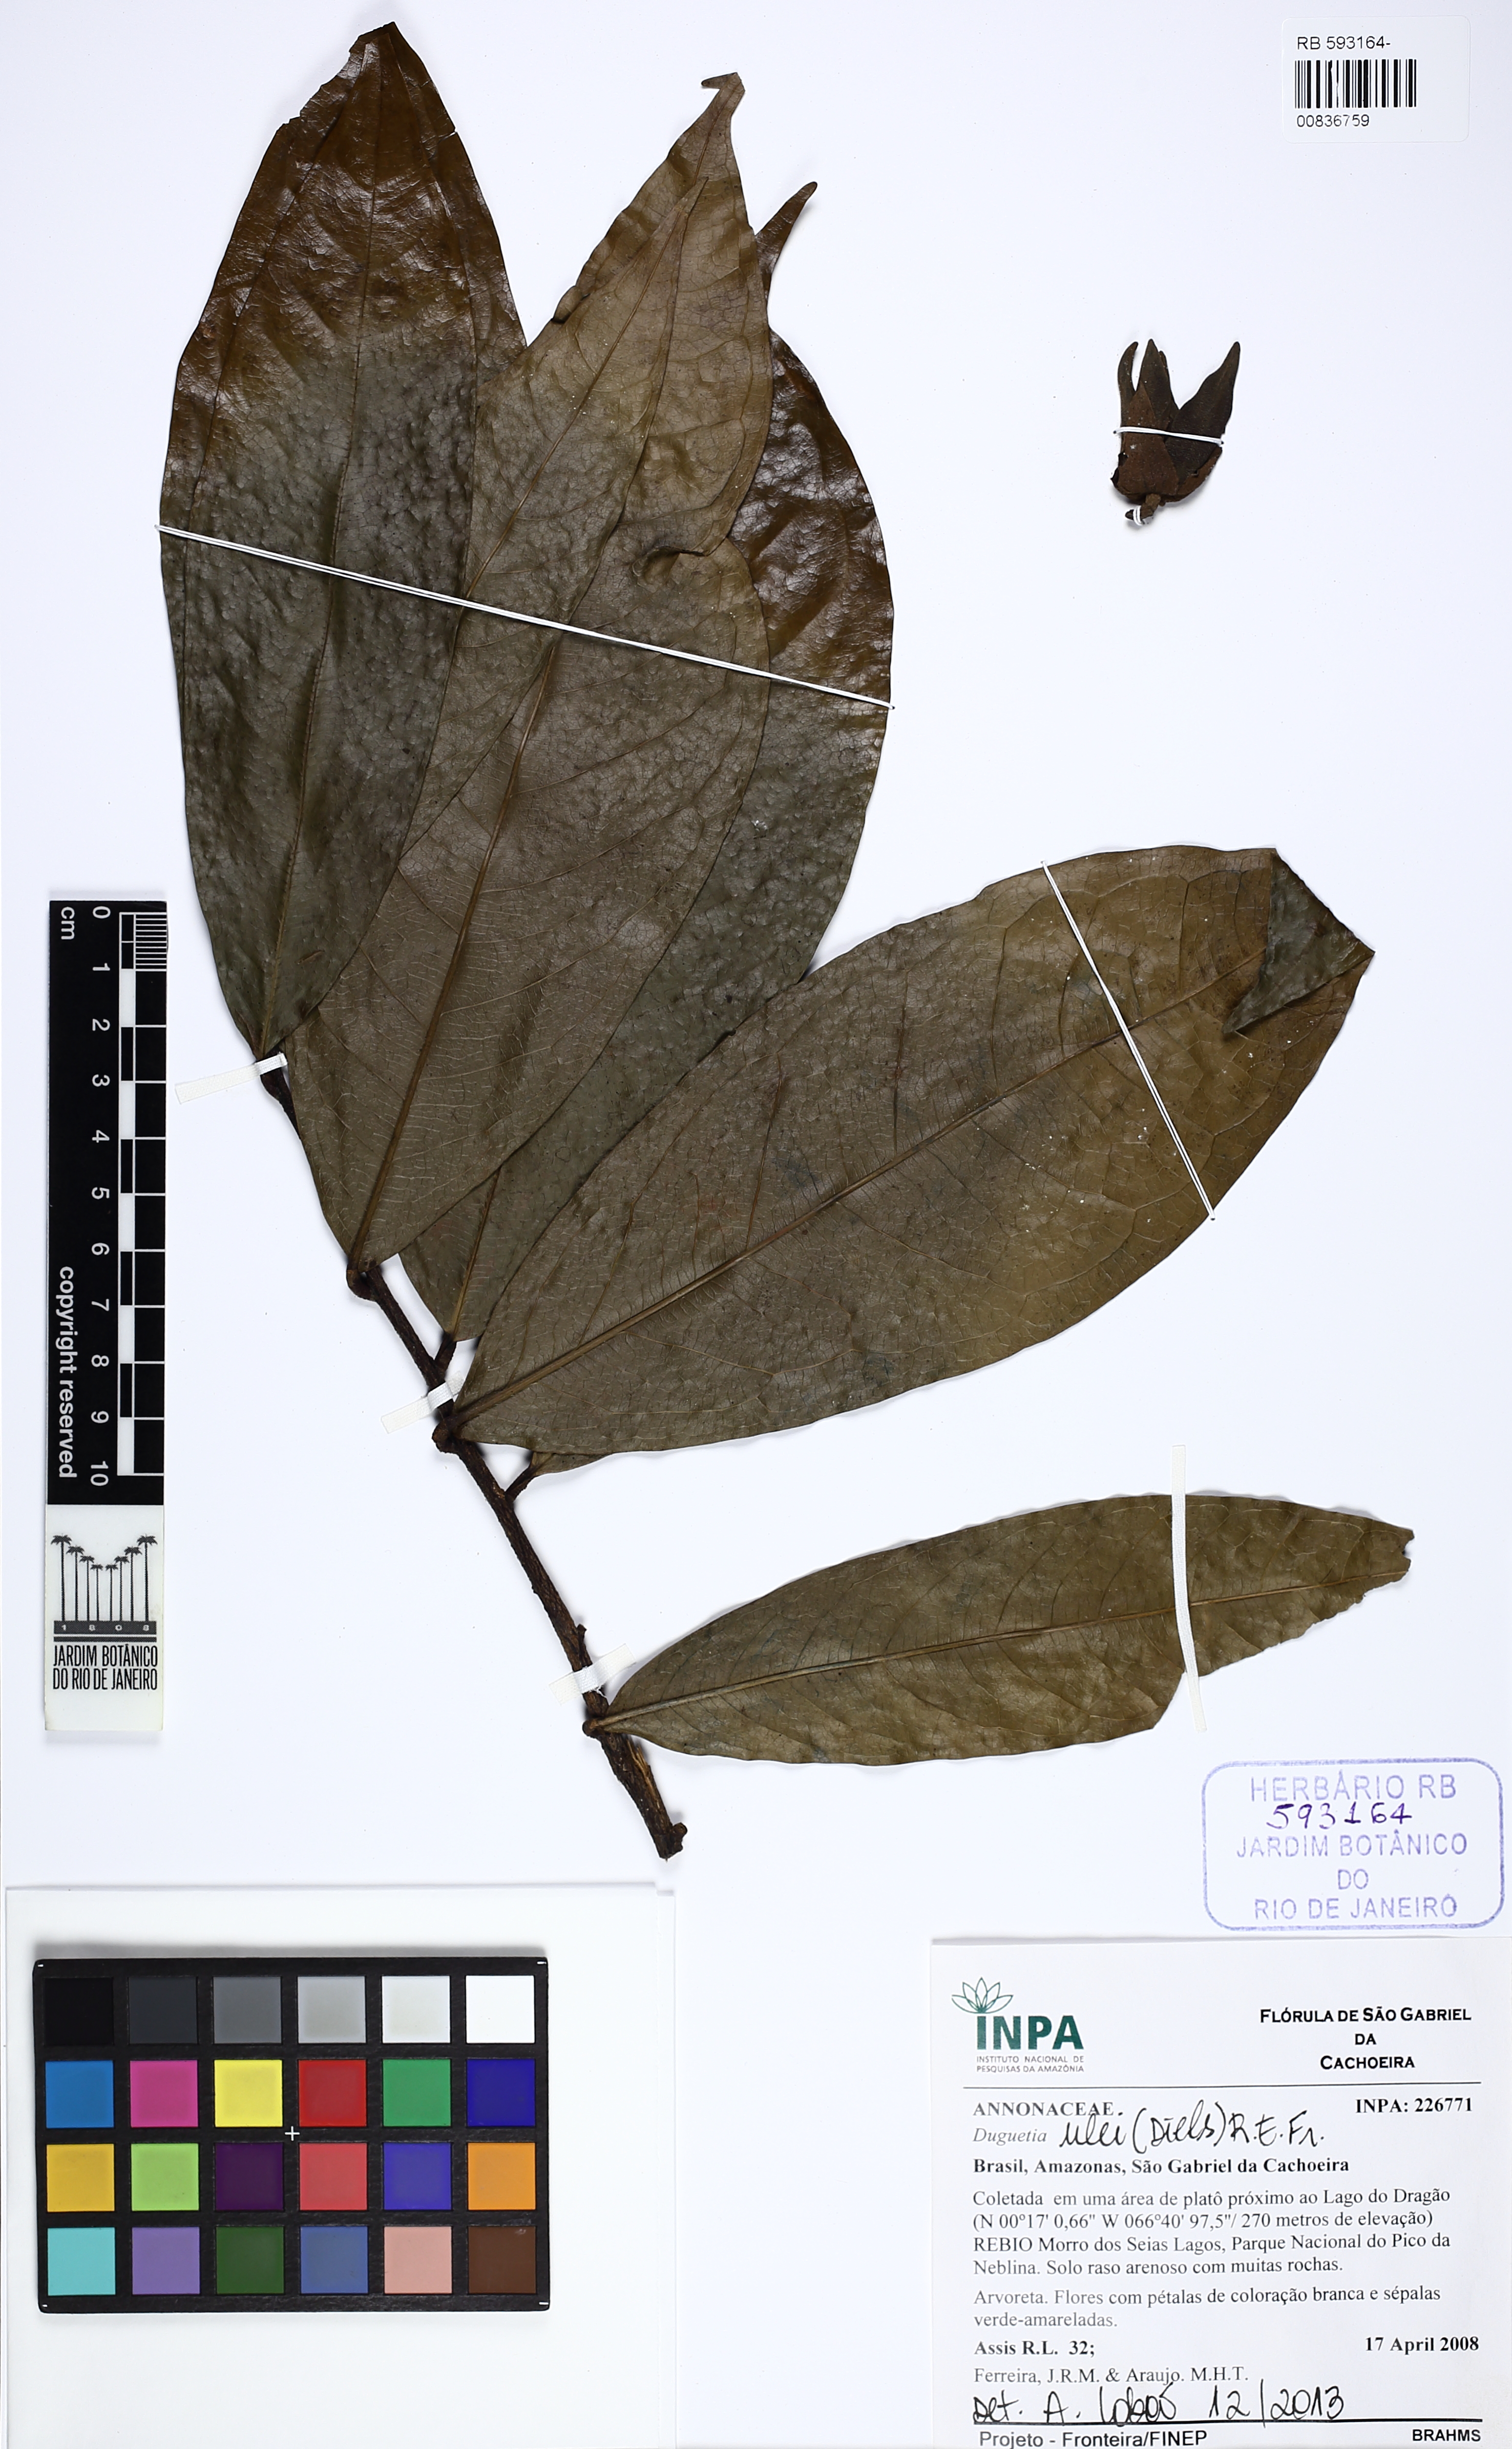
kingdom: Plantae
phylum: Tracheophyta
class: Magnoliopsida
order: Magnoliales
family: Annonaceae
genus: Duguetia
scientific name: Duguetia ulei
